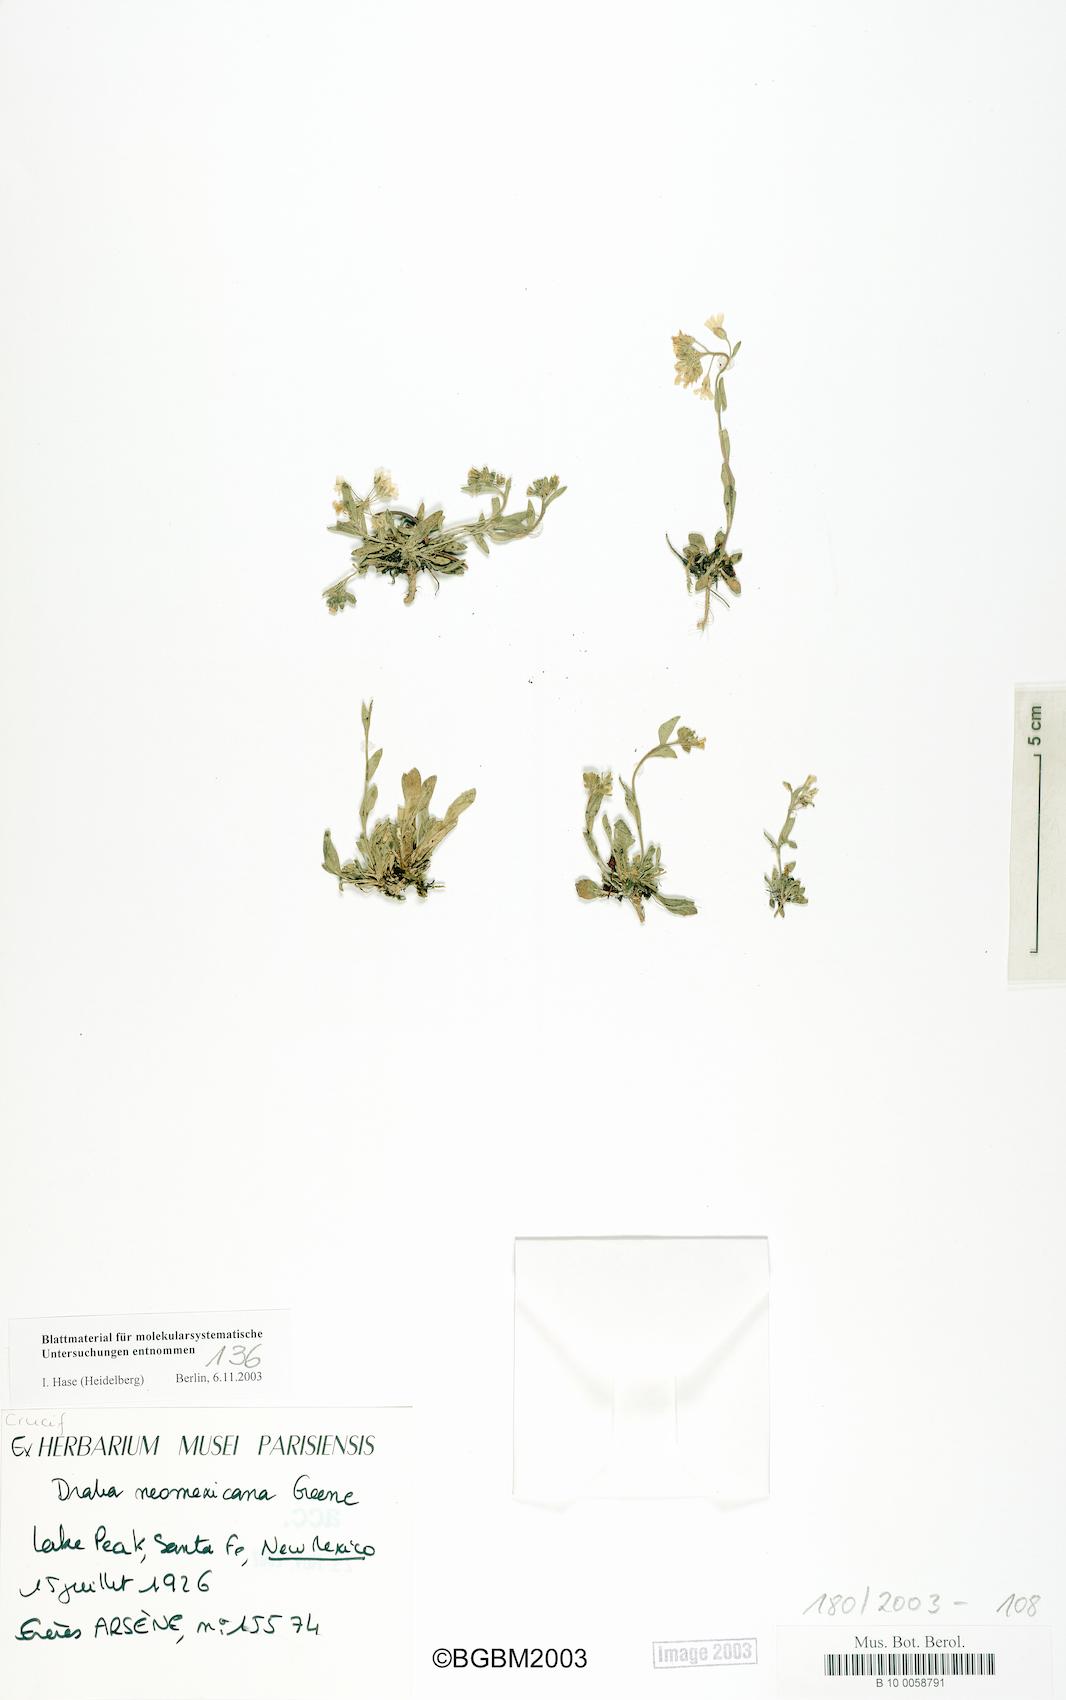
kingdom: Plantae
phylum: Tracheophyta
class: Magnoliopsida
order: Brassicales
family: Brassicaceae
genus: Draba
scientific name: Draba helleriana
